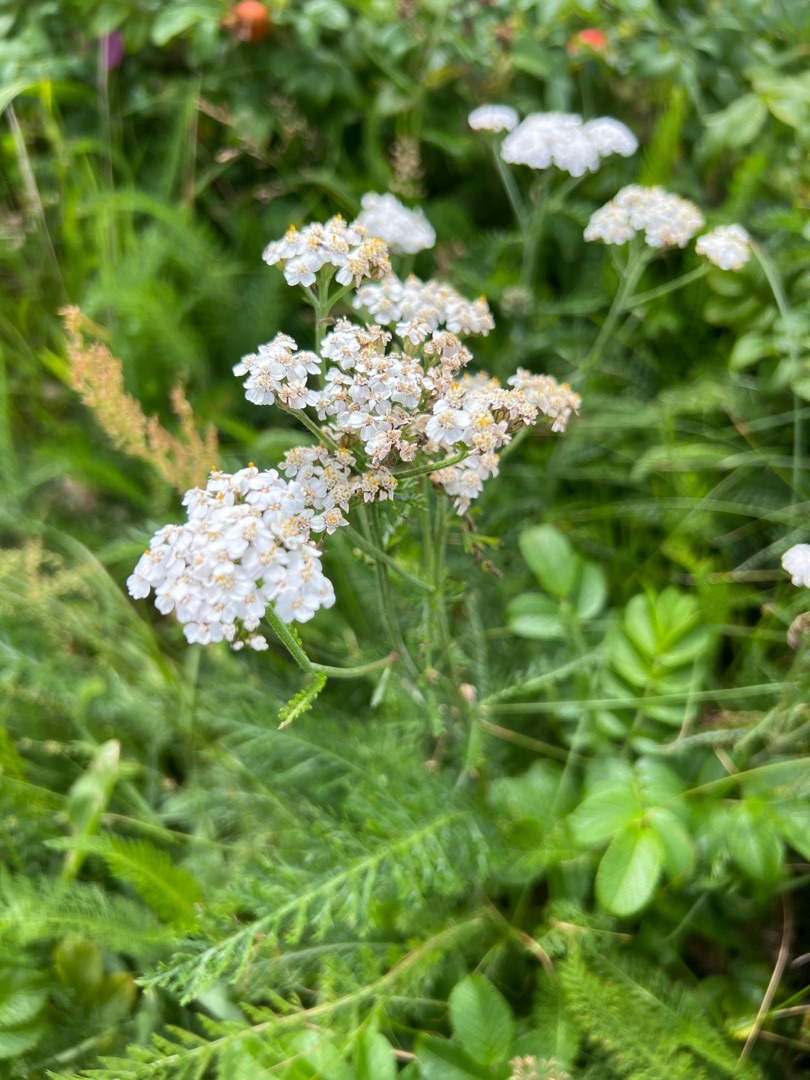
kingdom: Plantae
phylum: Tracheophyta
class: Magnoliopsida
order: Asterales
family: Asteraceae
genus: Achillea
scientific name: Achillea millefolium
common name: Almindelig røllike
